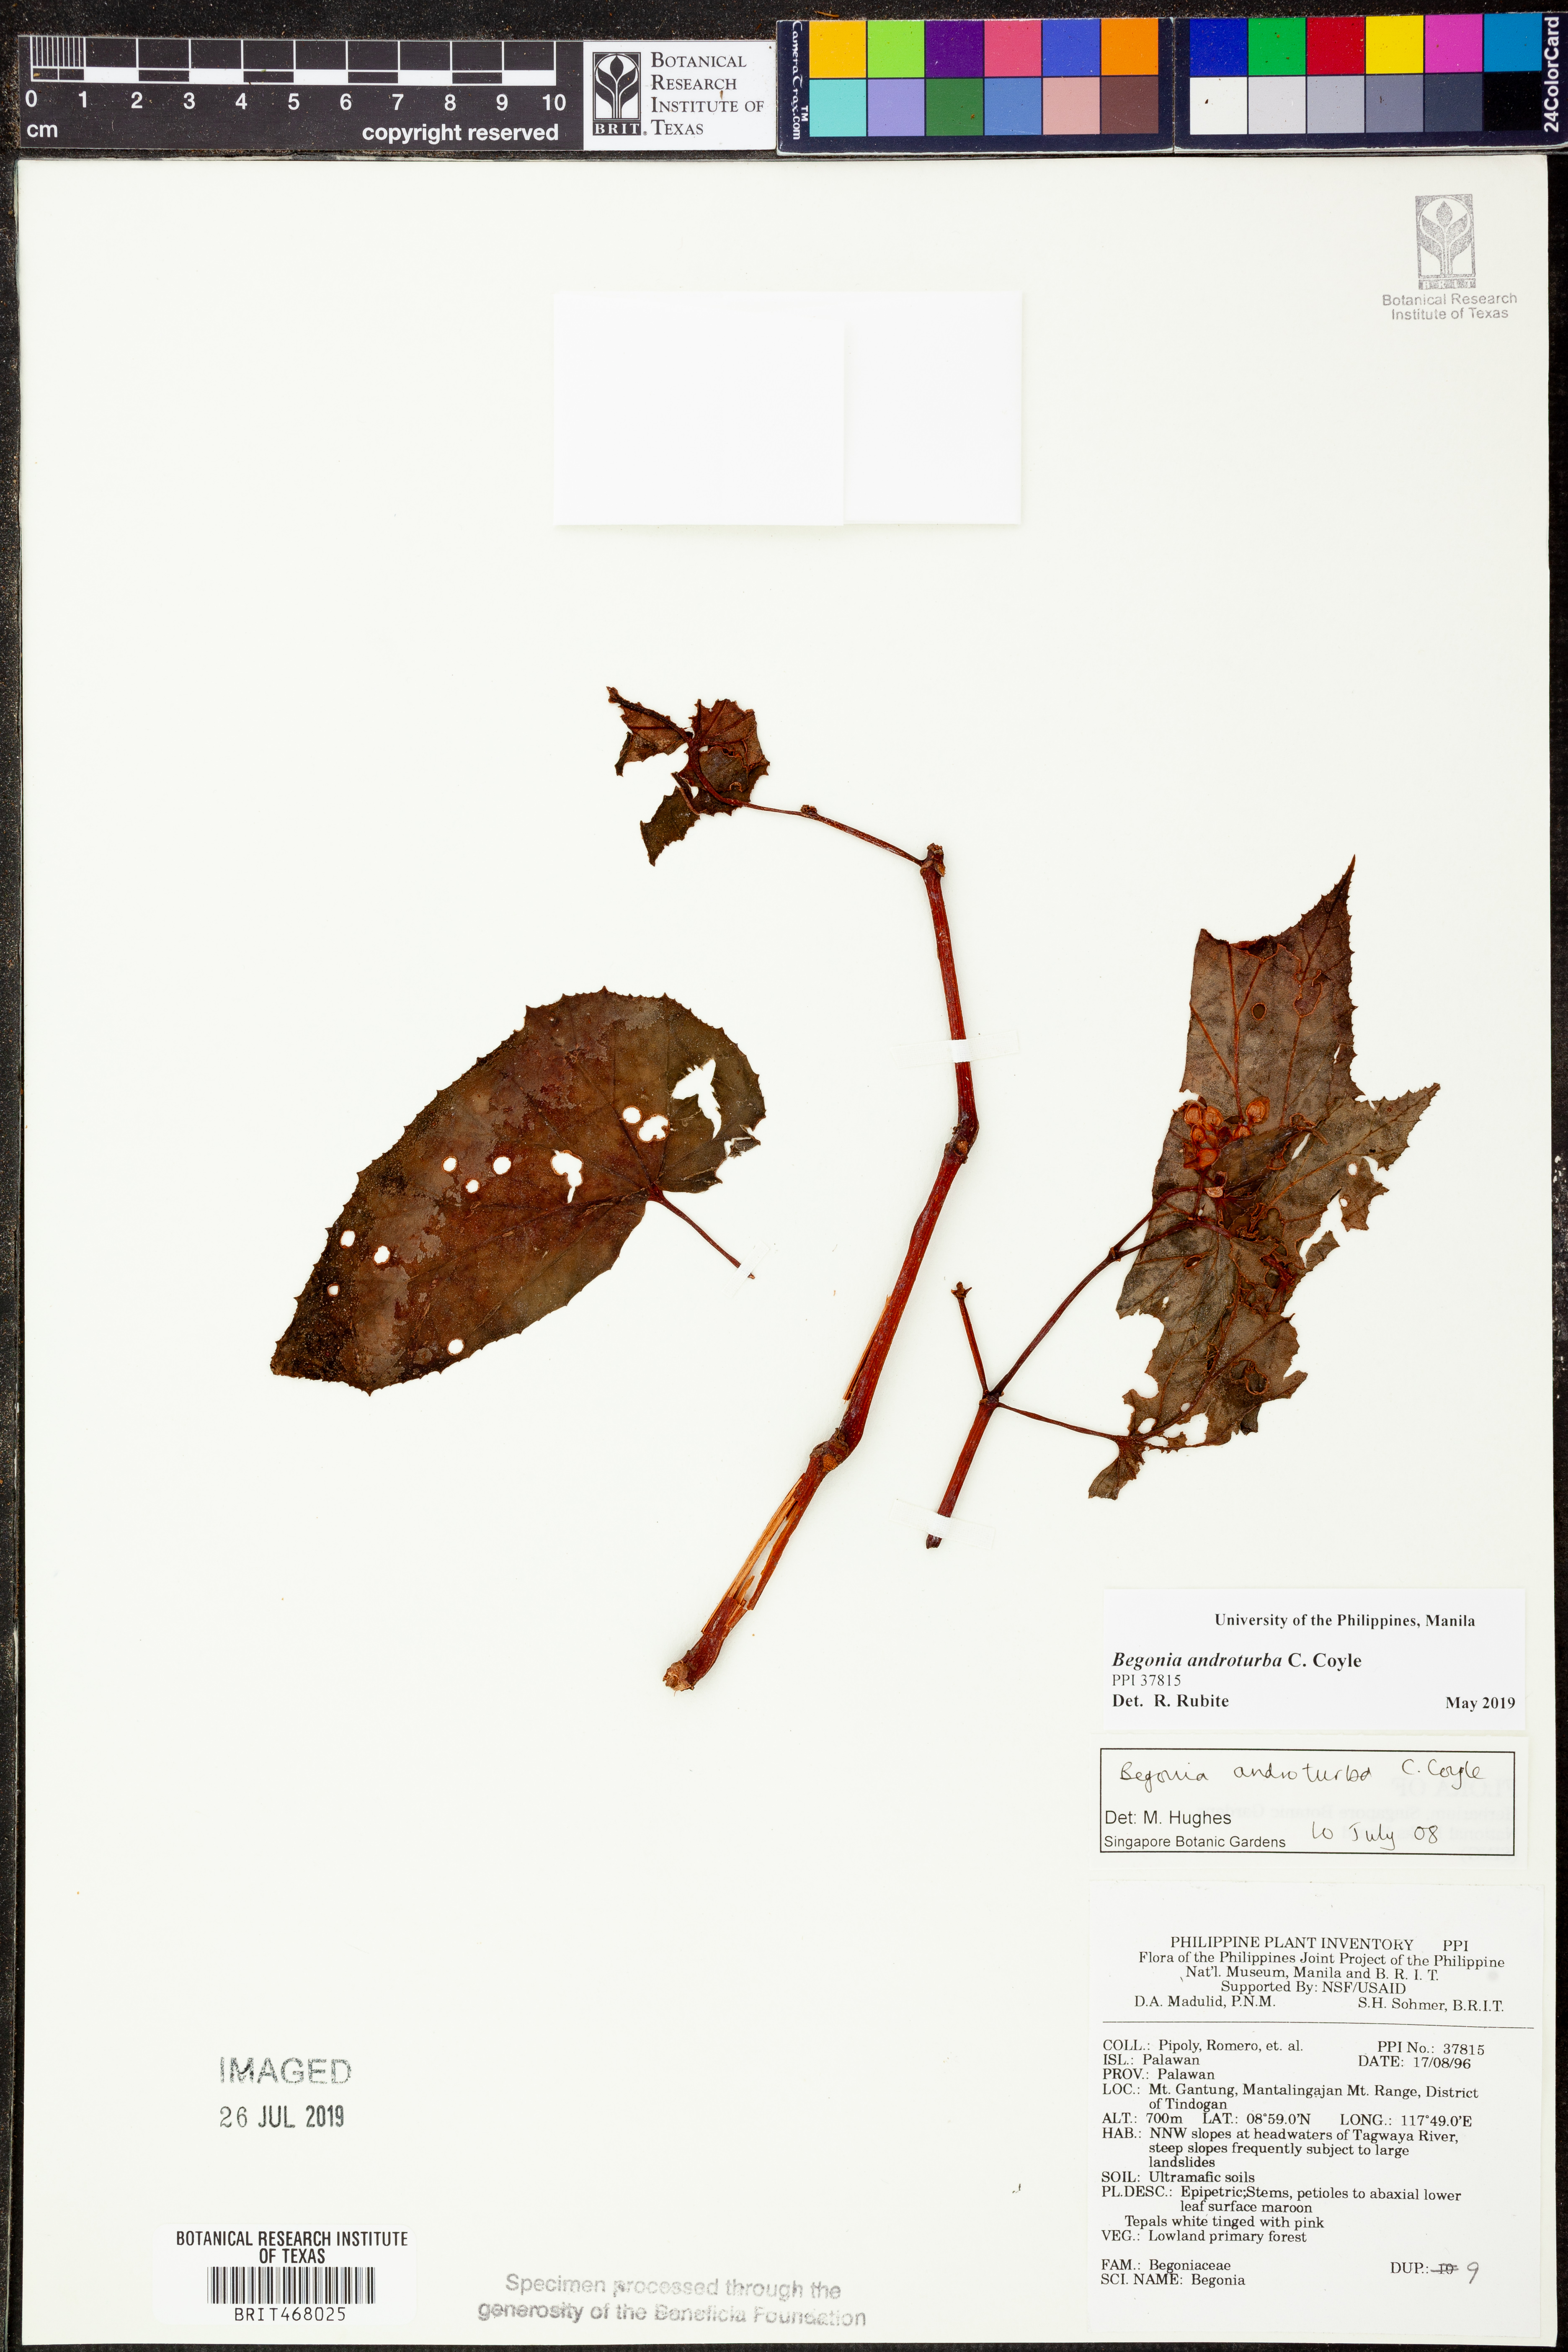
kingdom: Plantae
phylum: Tracheophyta
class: Magnoliopsida
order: Cucurbitales
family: Begoniaceae
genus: Begonia
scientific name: Begonia androturba
